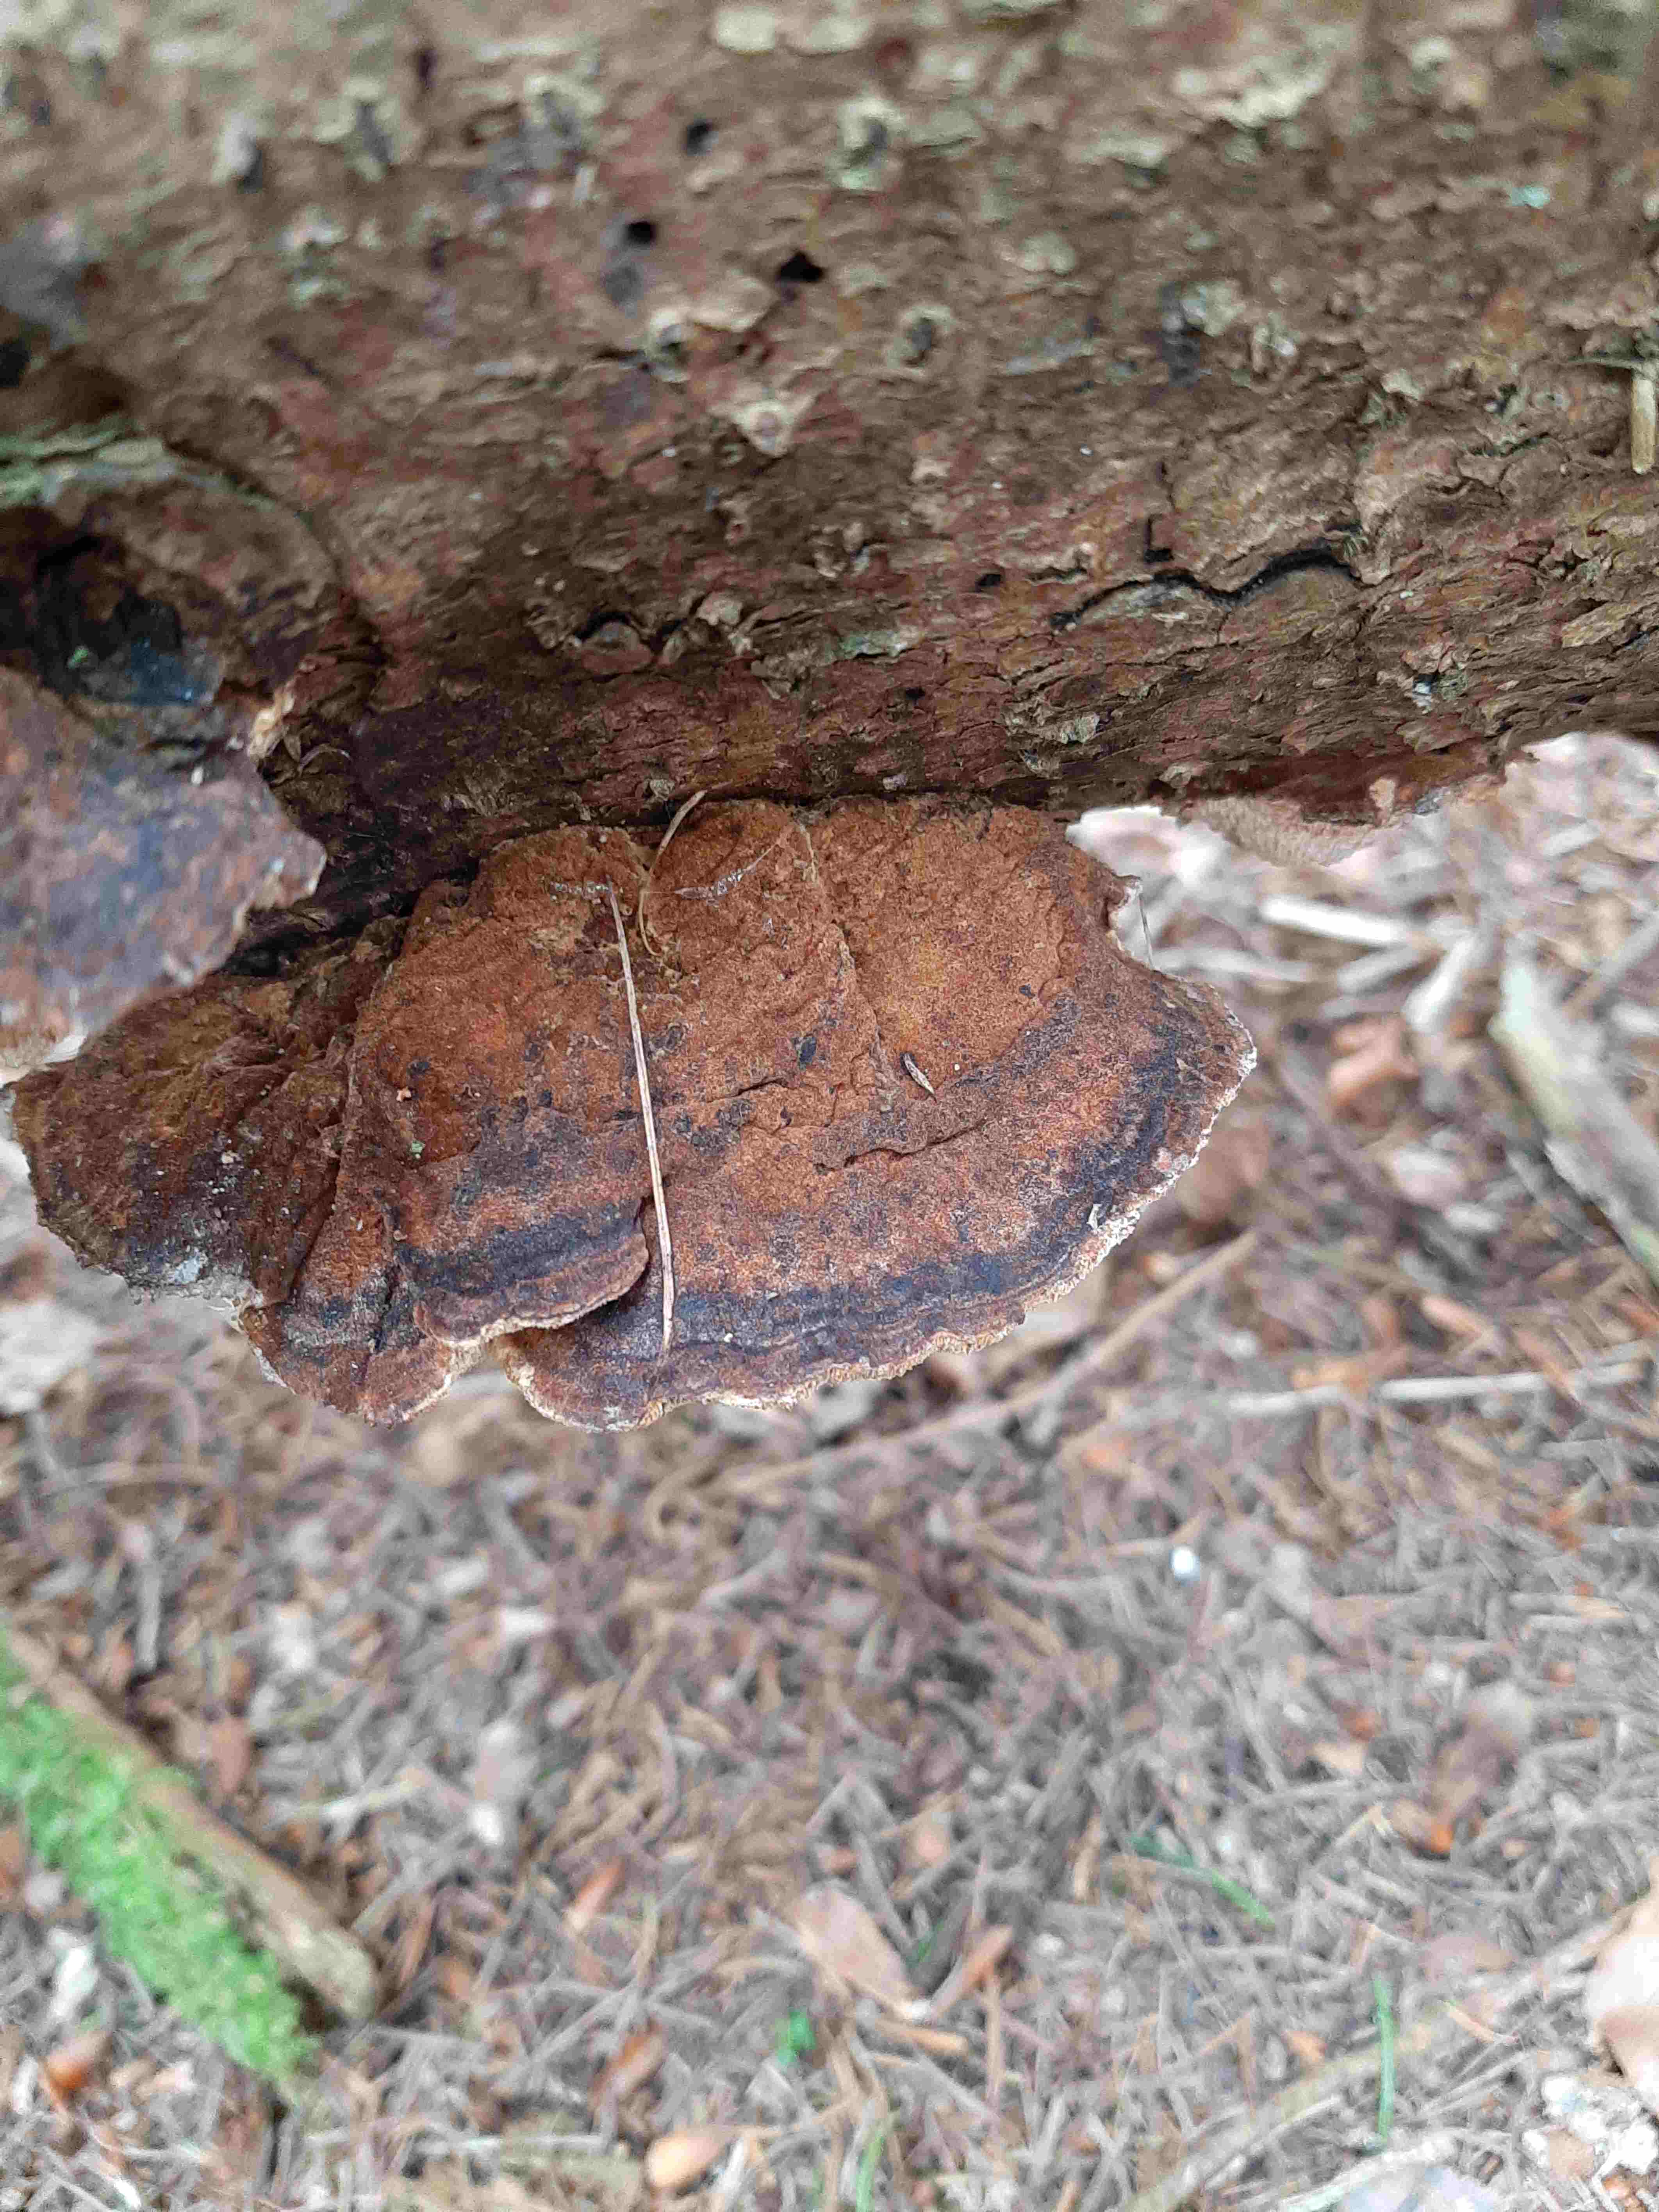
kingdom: Fungi
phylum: Basidiomycota
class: Agaricomycetes
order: Polyporales
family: Ischnodermataceae
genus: Ischnoderma
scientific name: Ischnoderma benzoinum
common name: gran-tjæreporesvamp
